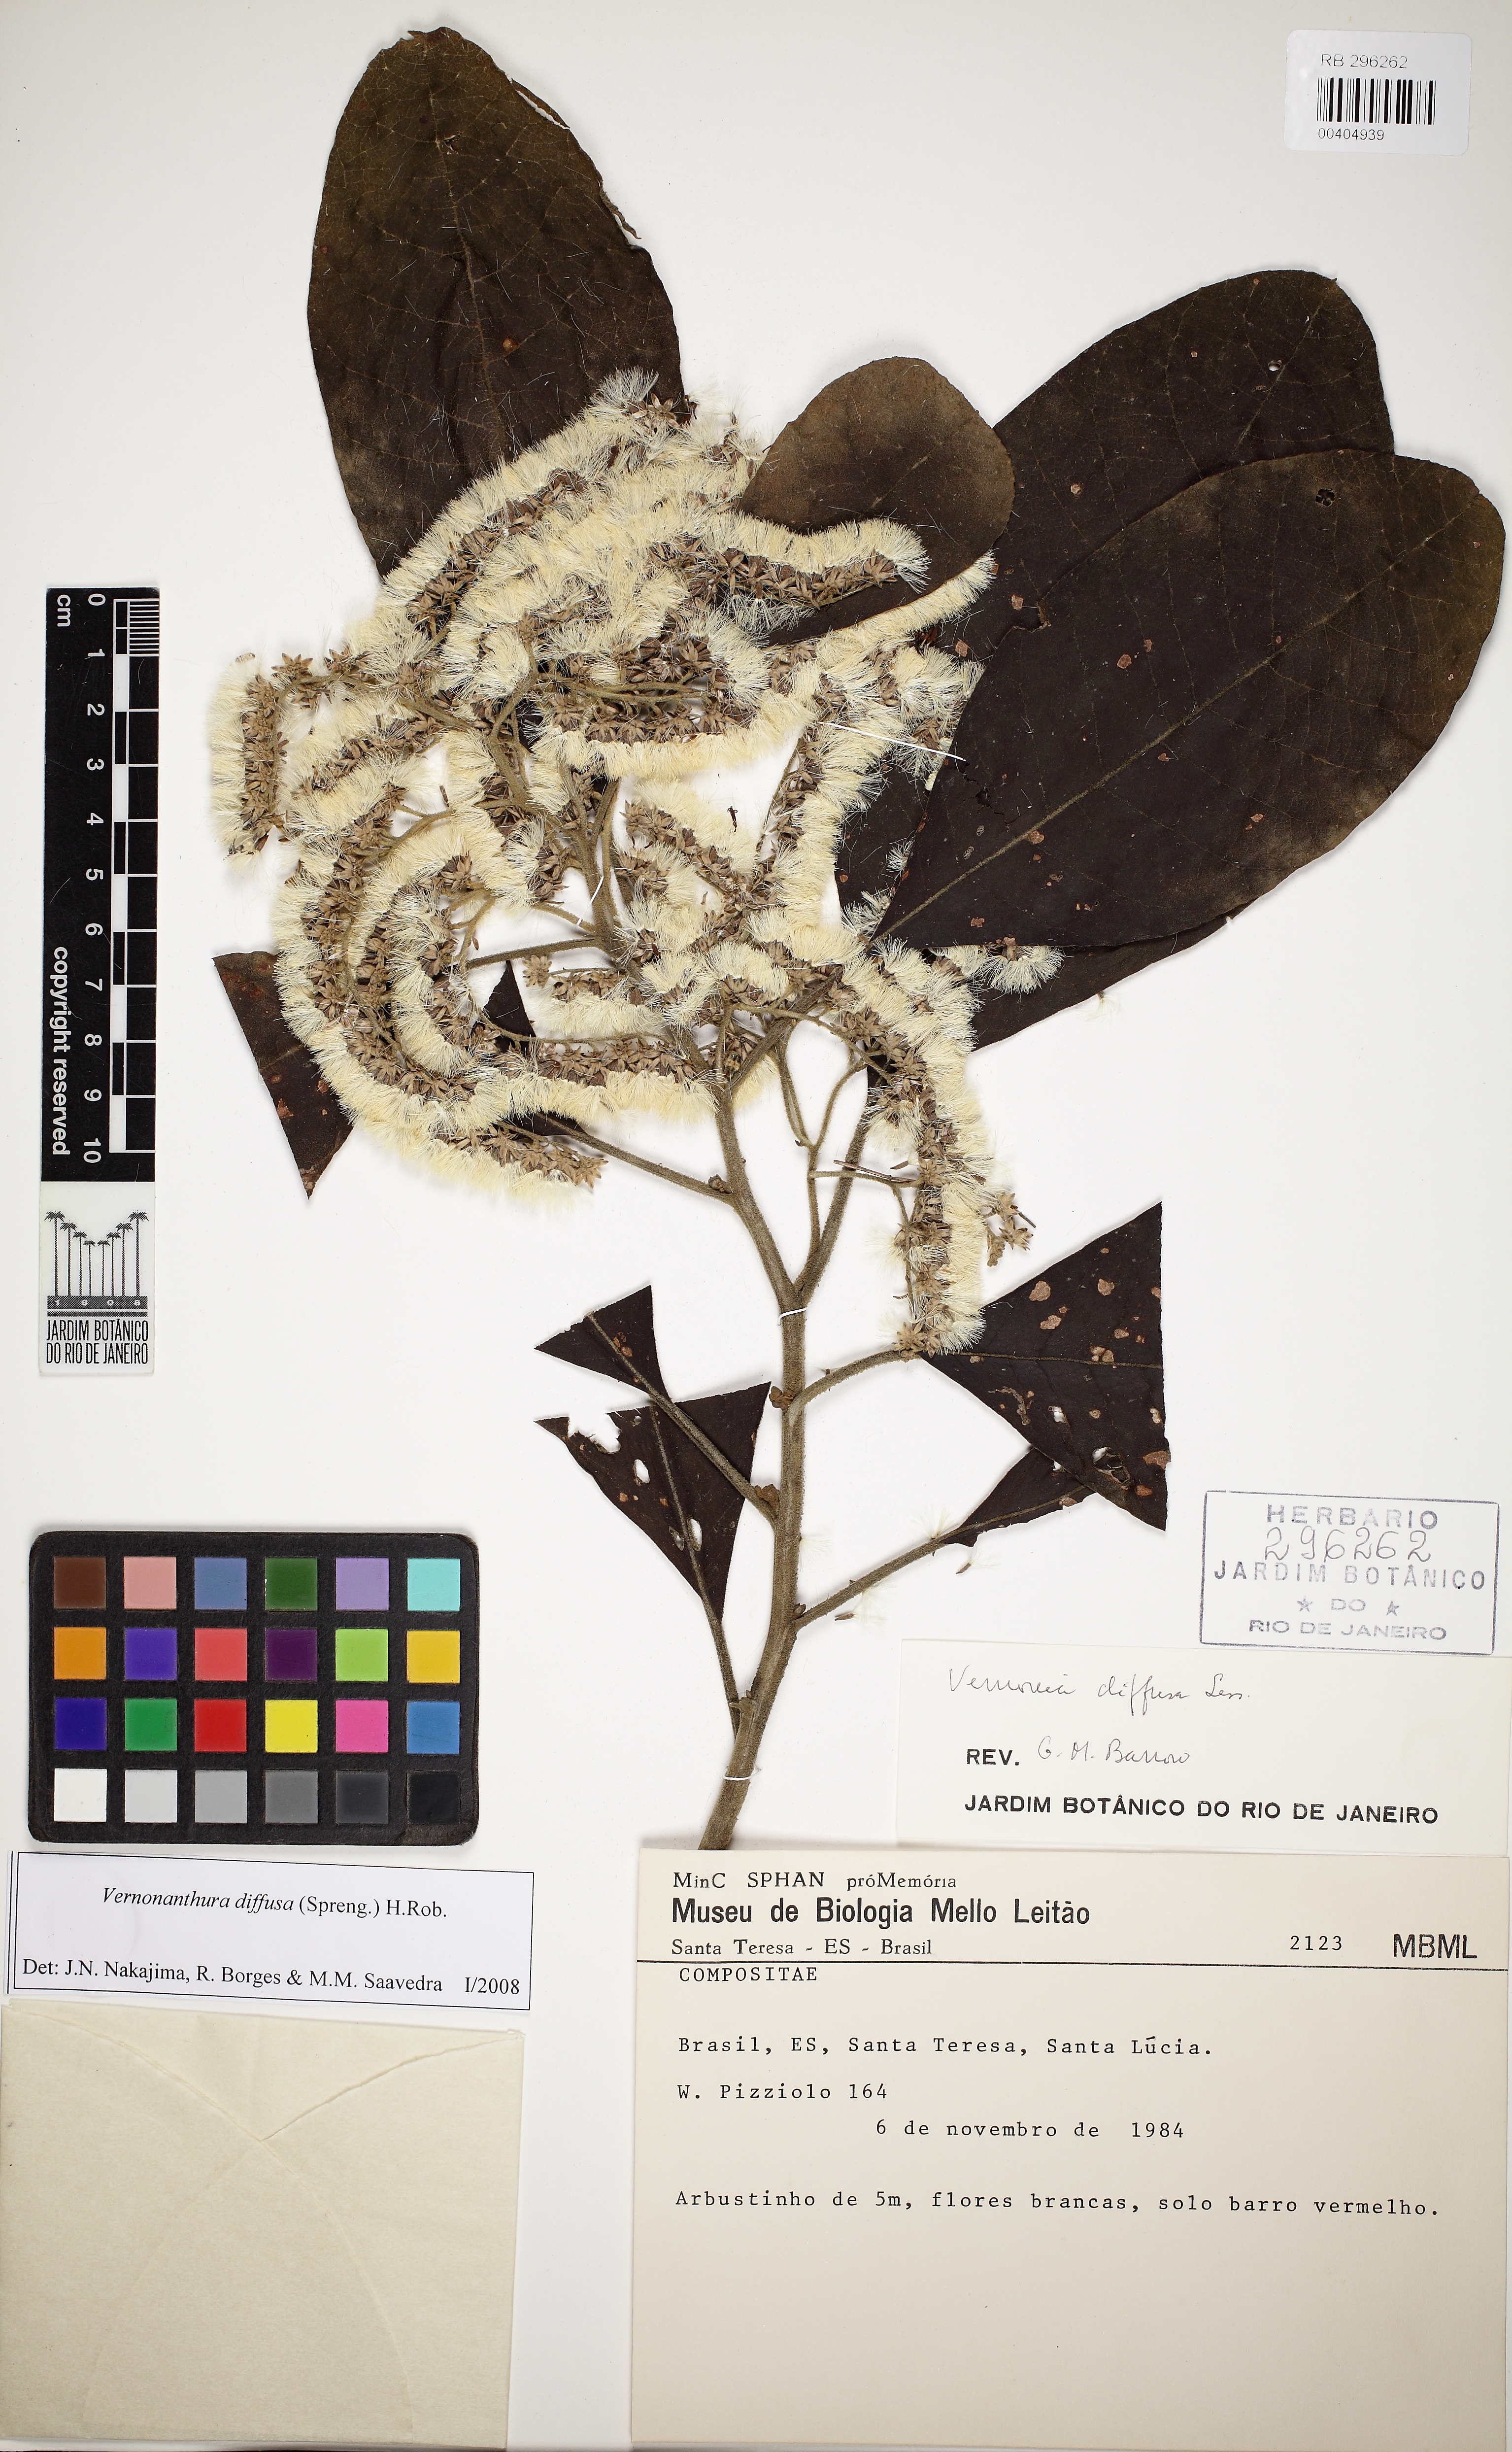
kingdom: Plantae
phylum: Tracheophyta
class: Magnoliopsida
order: Asterales
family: Asteraceae
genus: Vernonanthura
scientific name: Vernonanthura divaricata
